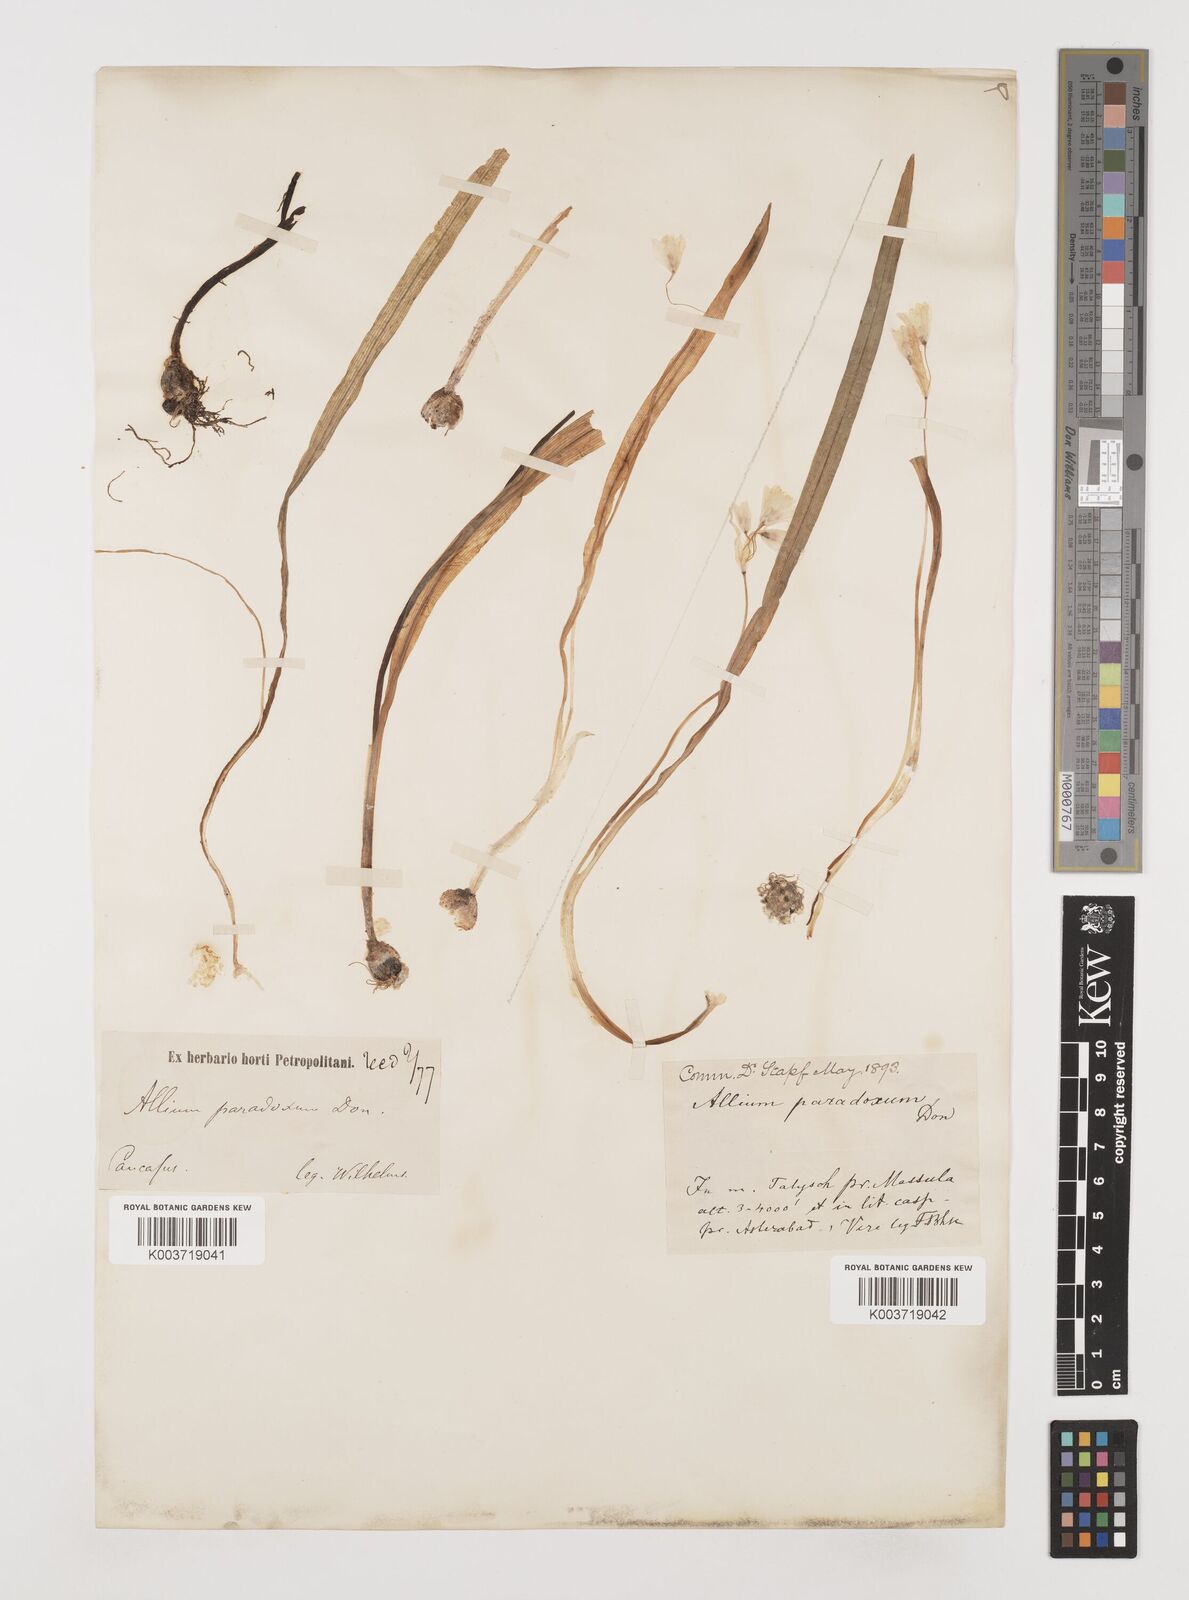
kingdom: Plantae
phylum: Tracheophyta
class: Liliopsida
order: Asparagales
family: Amaryllidaceae
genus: Allium
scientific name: Allium paradoxum
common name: Few-flowered garlic
